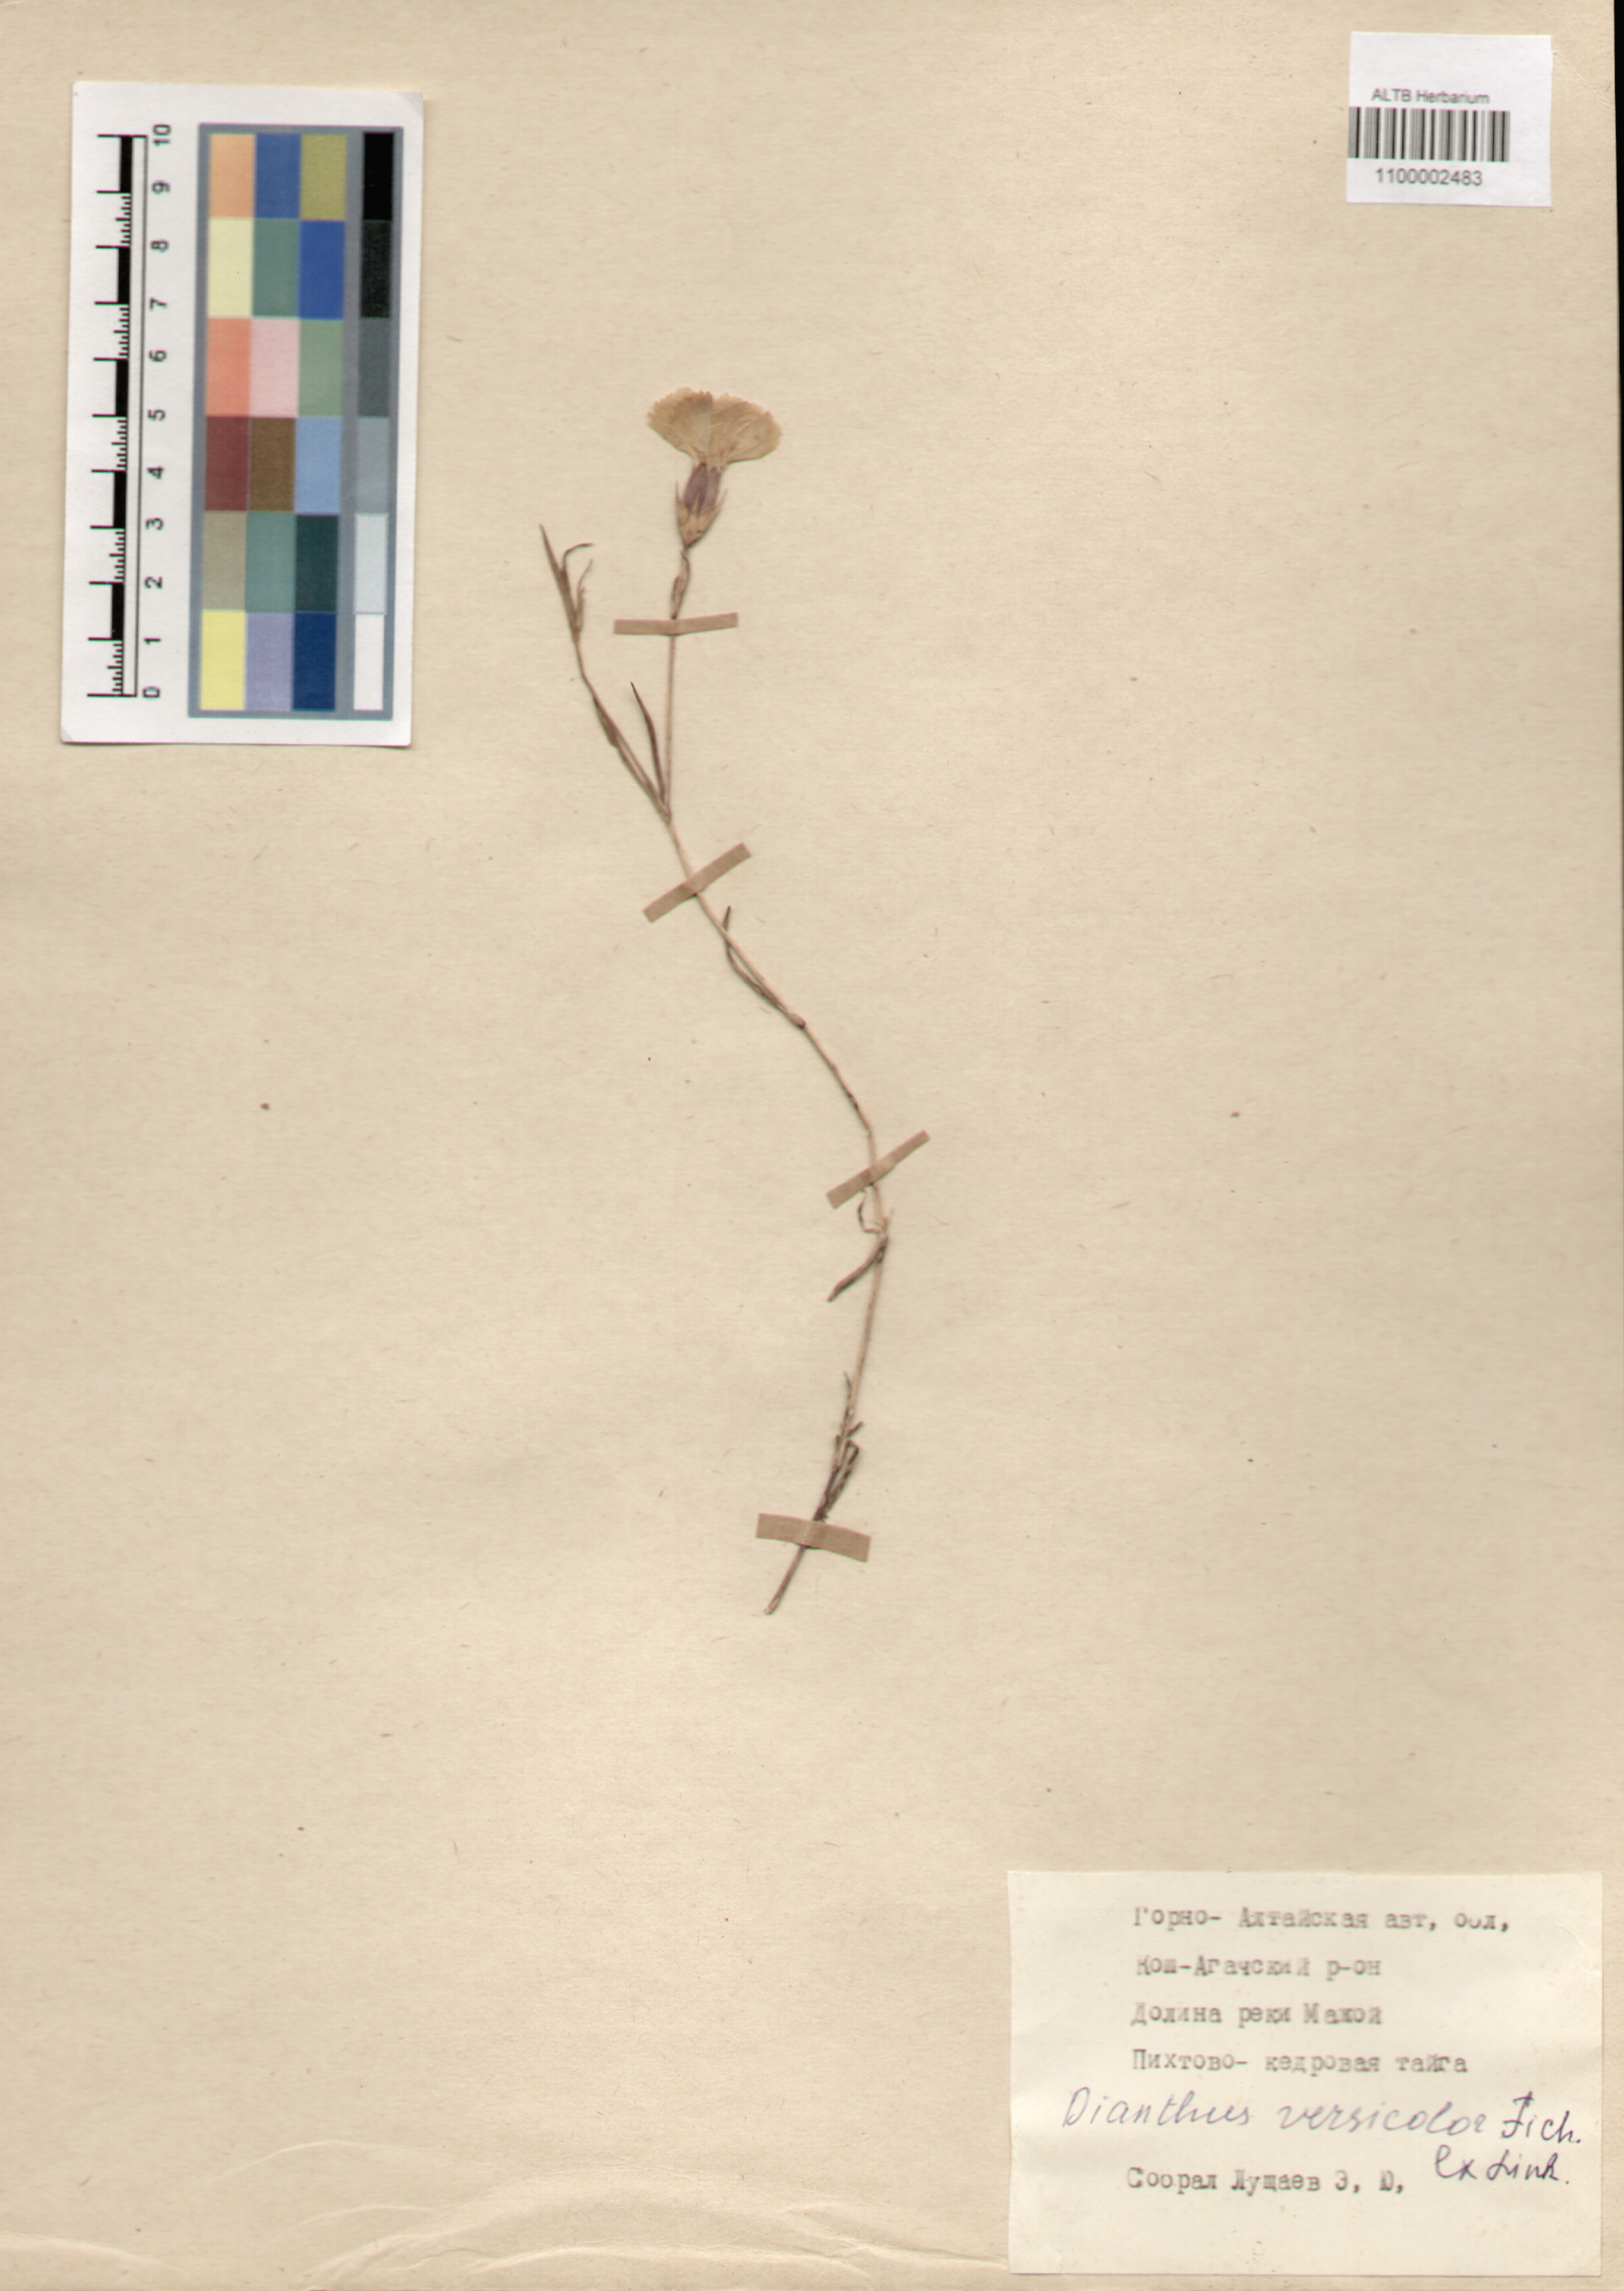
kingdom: Plantae
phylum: Tracheophyta
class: Magnoliopsida
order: Caryophyllales
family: Caryophyllaceae
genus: Dianthus
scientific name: Dianthus chinensis
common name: Rainbow pink
